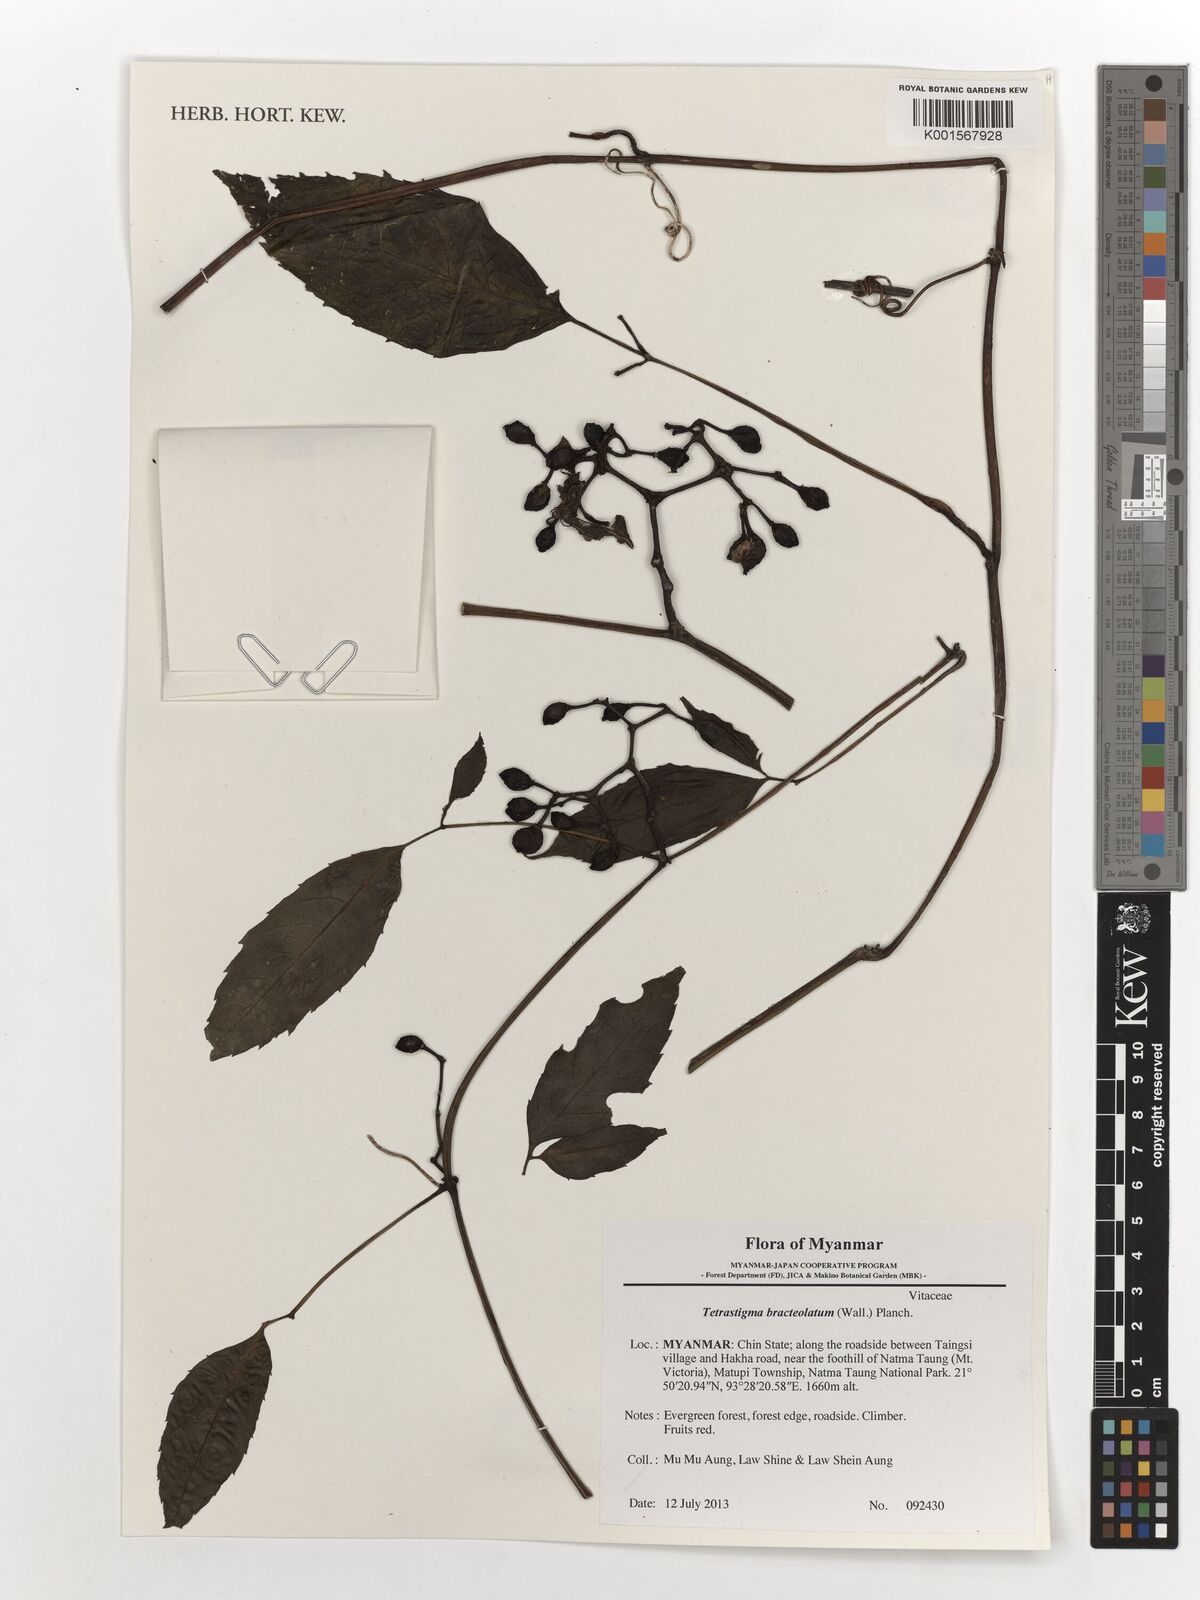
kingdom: Plantae
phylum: Tracheophyta
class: Magnoliopsida
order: Vitales
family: Vitaceae
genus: Tetrastigma
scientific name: Tetrastigma bracteolatum
